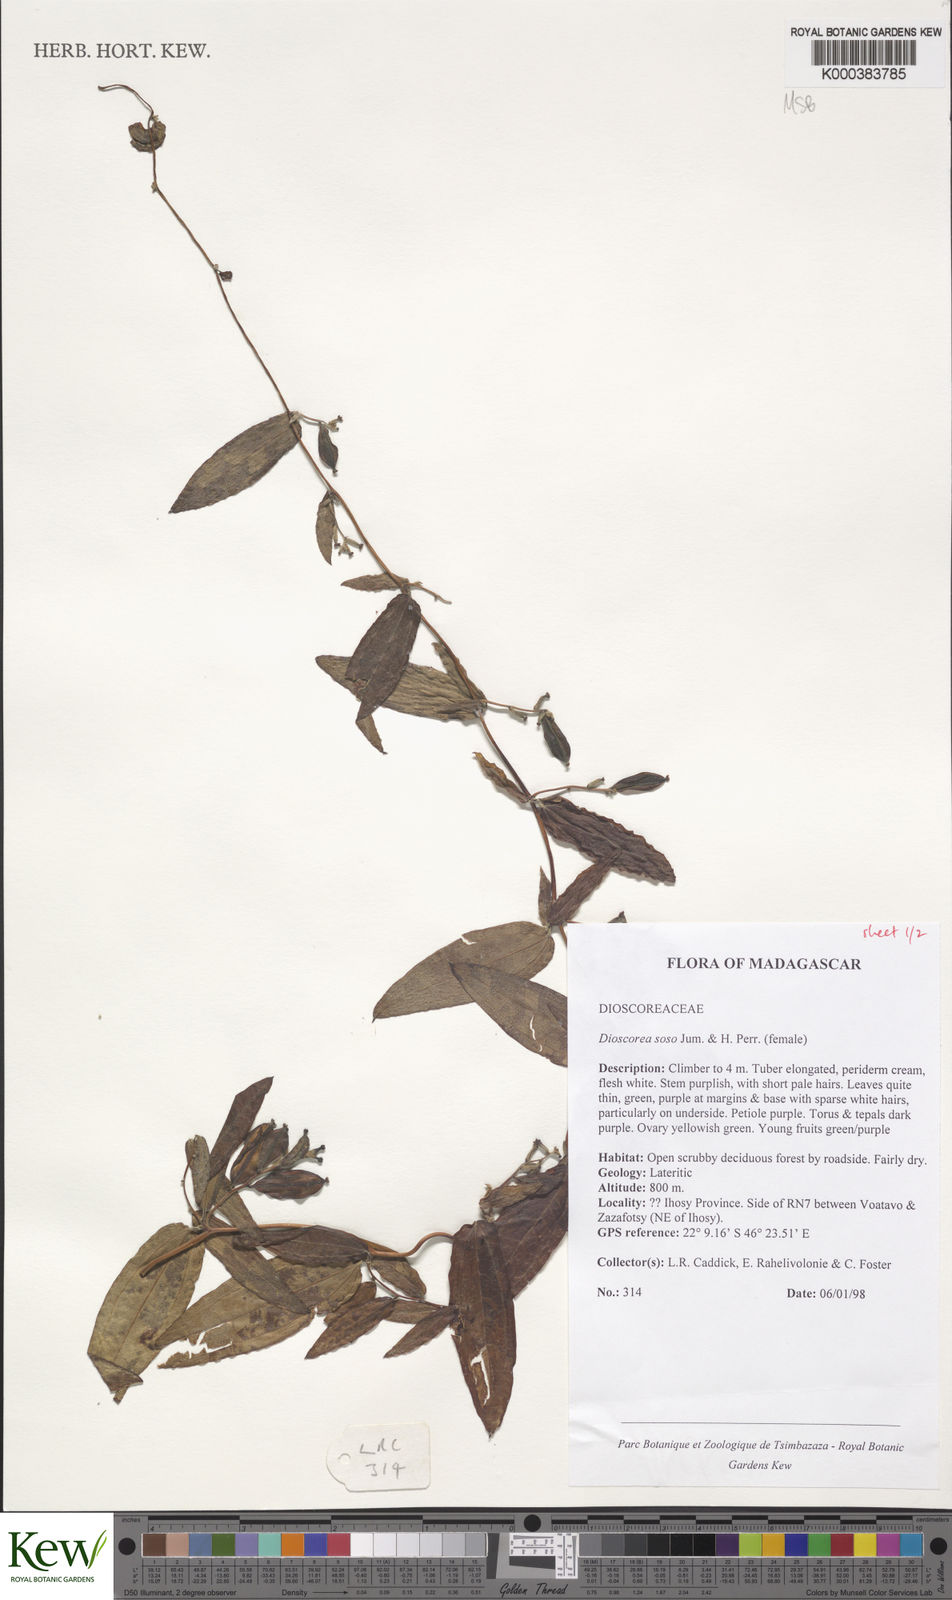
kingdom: Plantae
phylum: Tracheophyta
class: Liliopsida
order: Dioscoreales
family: Dioscoreaceae
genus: Dioscorea
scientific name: Dioscorea
